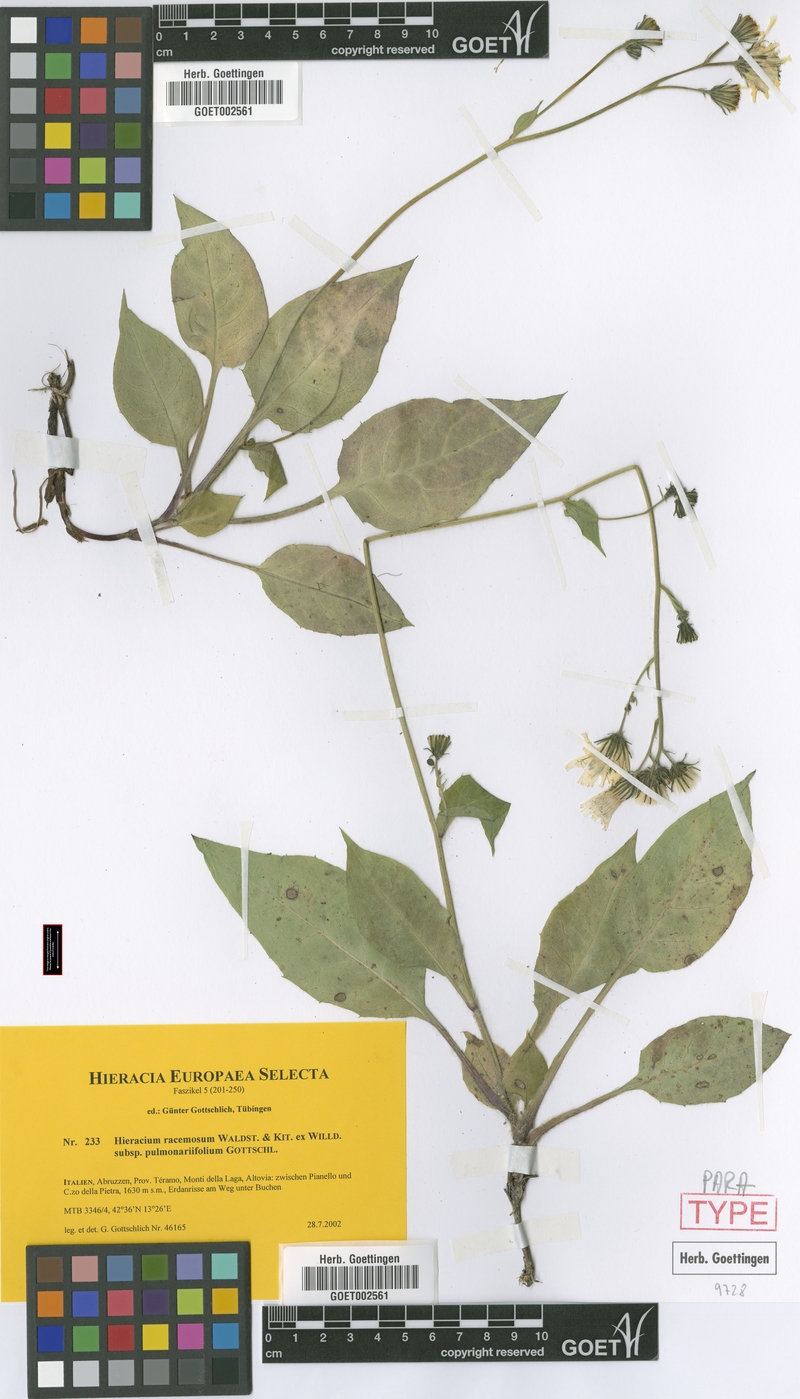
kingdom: Plantae
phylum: Tracheophyta
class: Magnoliopsida
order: Asterales
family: Asteraceae
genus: Hieracium
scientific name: Hieracium racemosum
